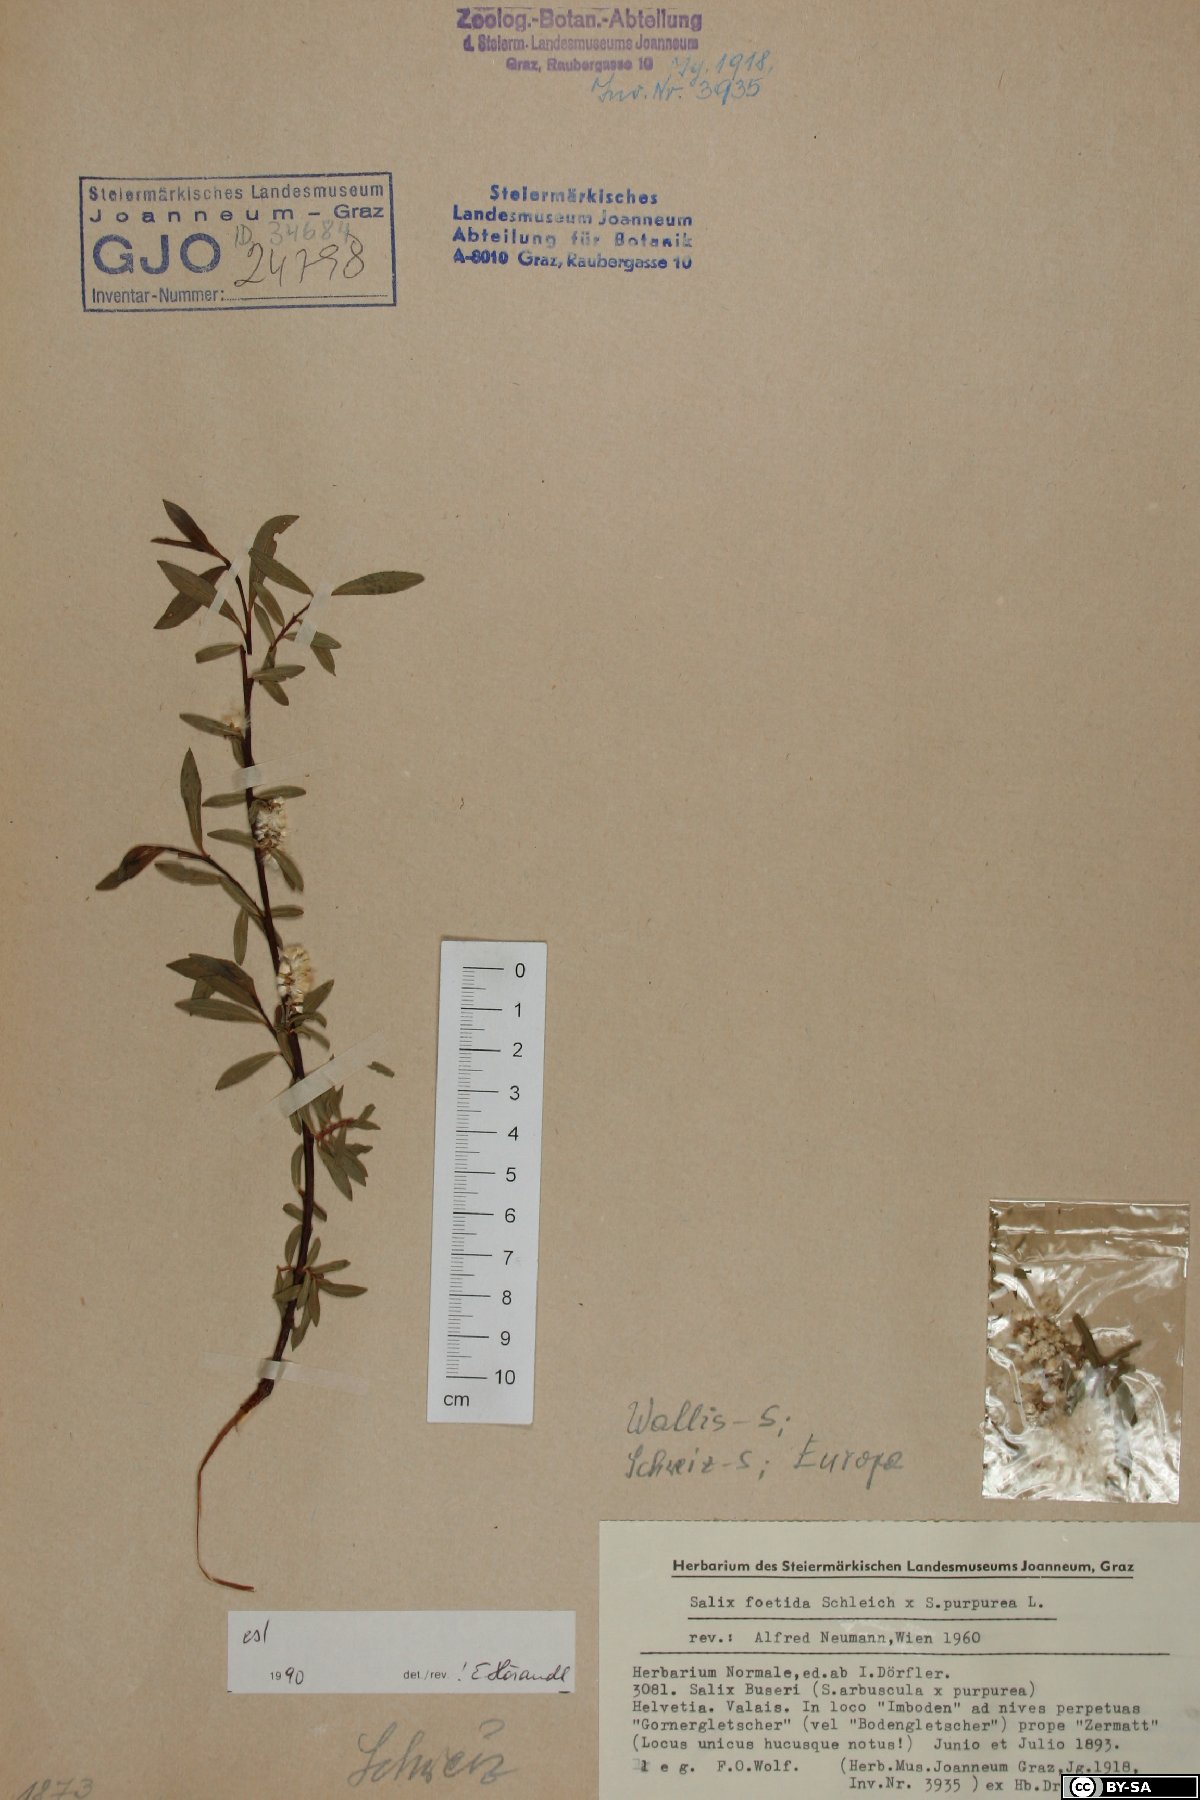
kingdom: Plantae
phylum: Tracheophyta
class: Magnoliopsida
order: Malpighiales
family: Salicaceae
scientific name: Salicaceae
